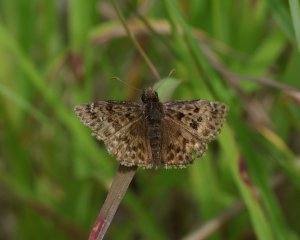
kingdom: Animalia
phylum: Arthropoda
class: Insecta
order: Lepidoptera
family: Hesperiidae
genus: Erynnis
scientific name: Erynnis martialis
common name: Mottled Duskywing
